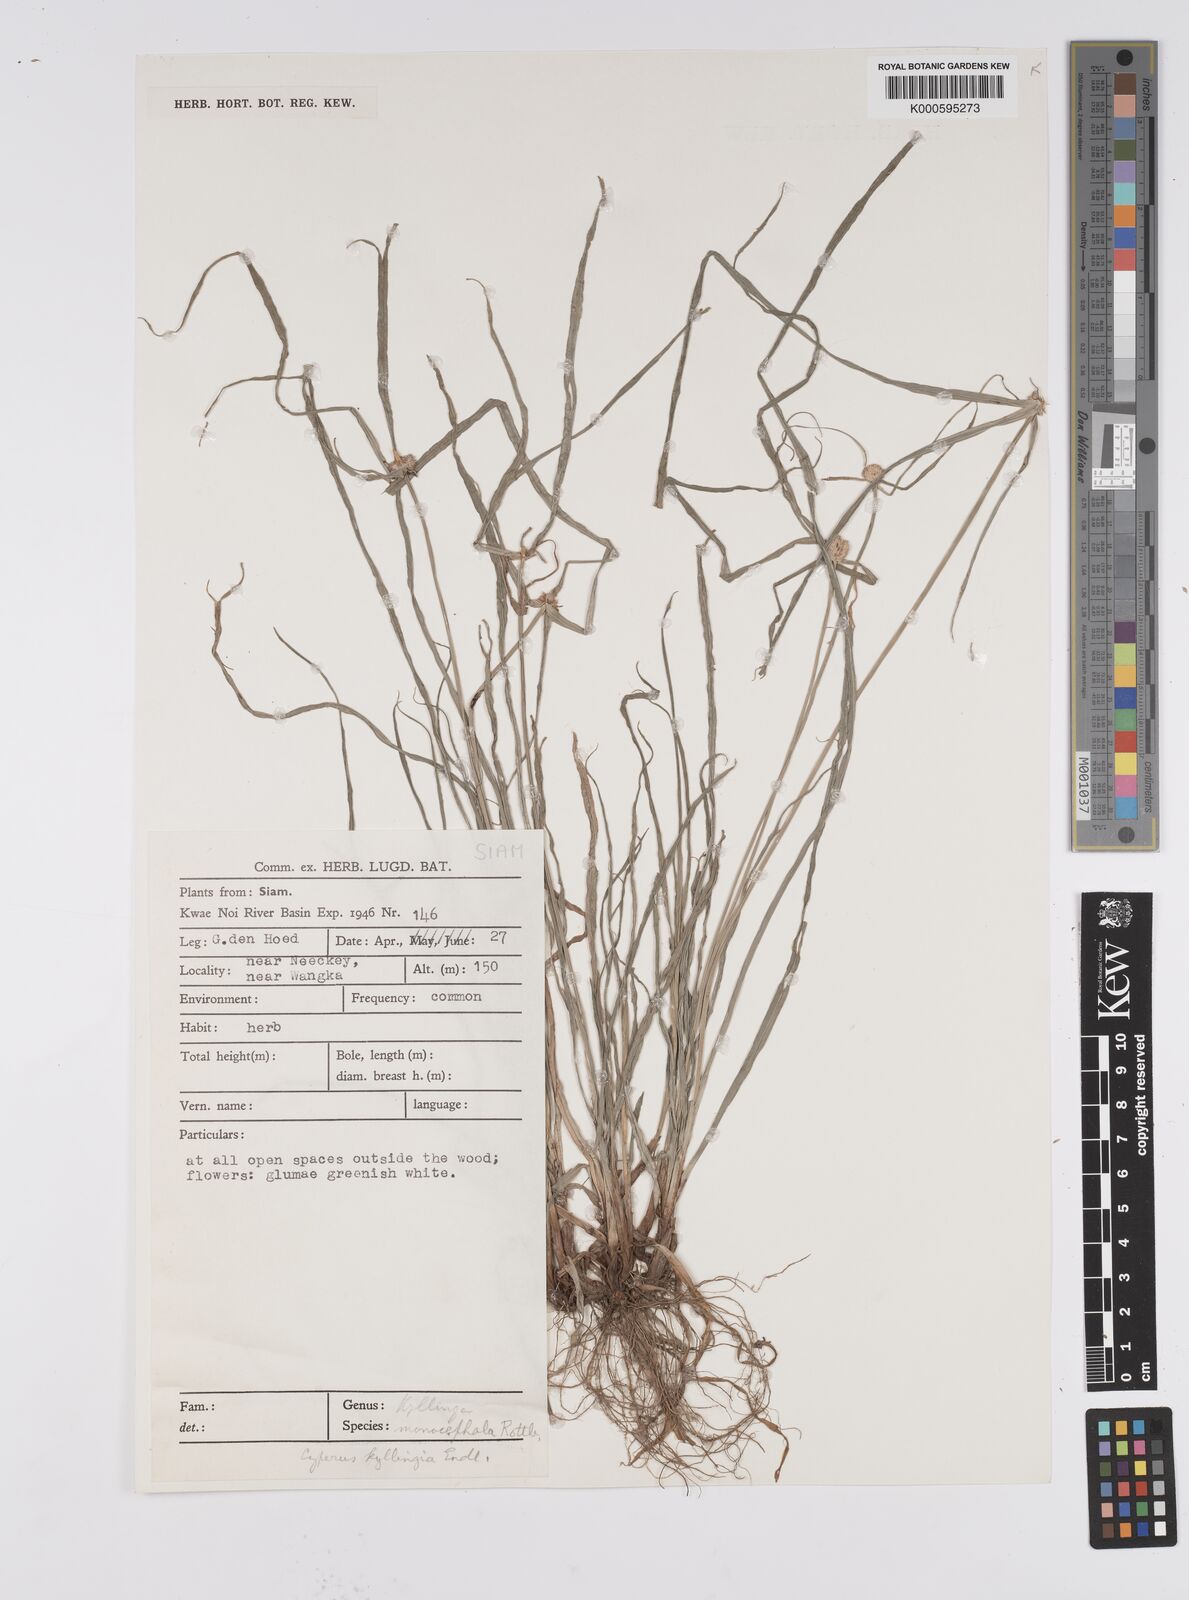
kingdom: Plantae
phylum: Tracheophyta
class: Liliopsida
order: Poales
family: Cyperaceae
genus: Cyperus
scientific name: Cyperus mindorensis
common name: Flatsedge
